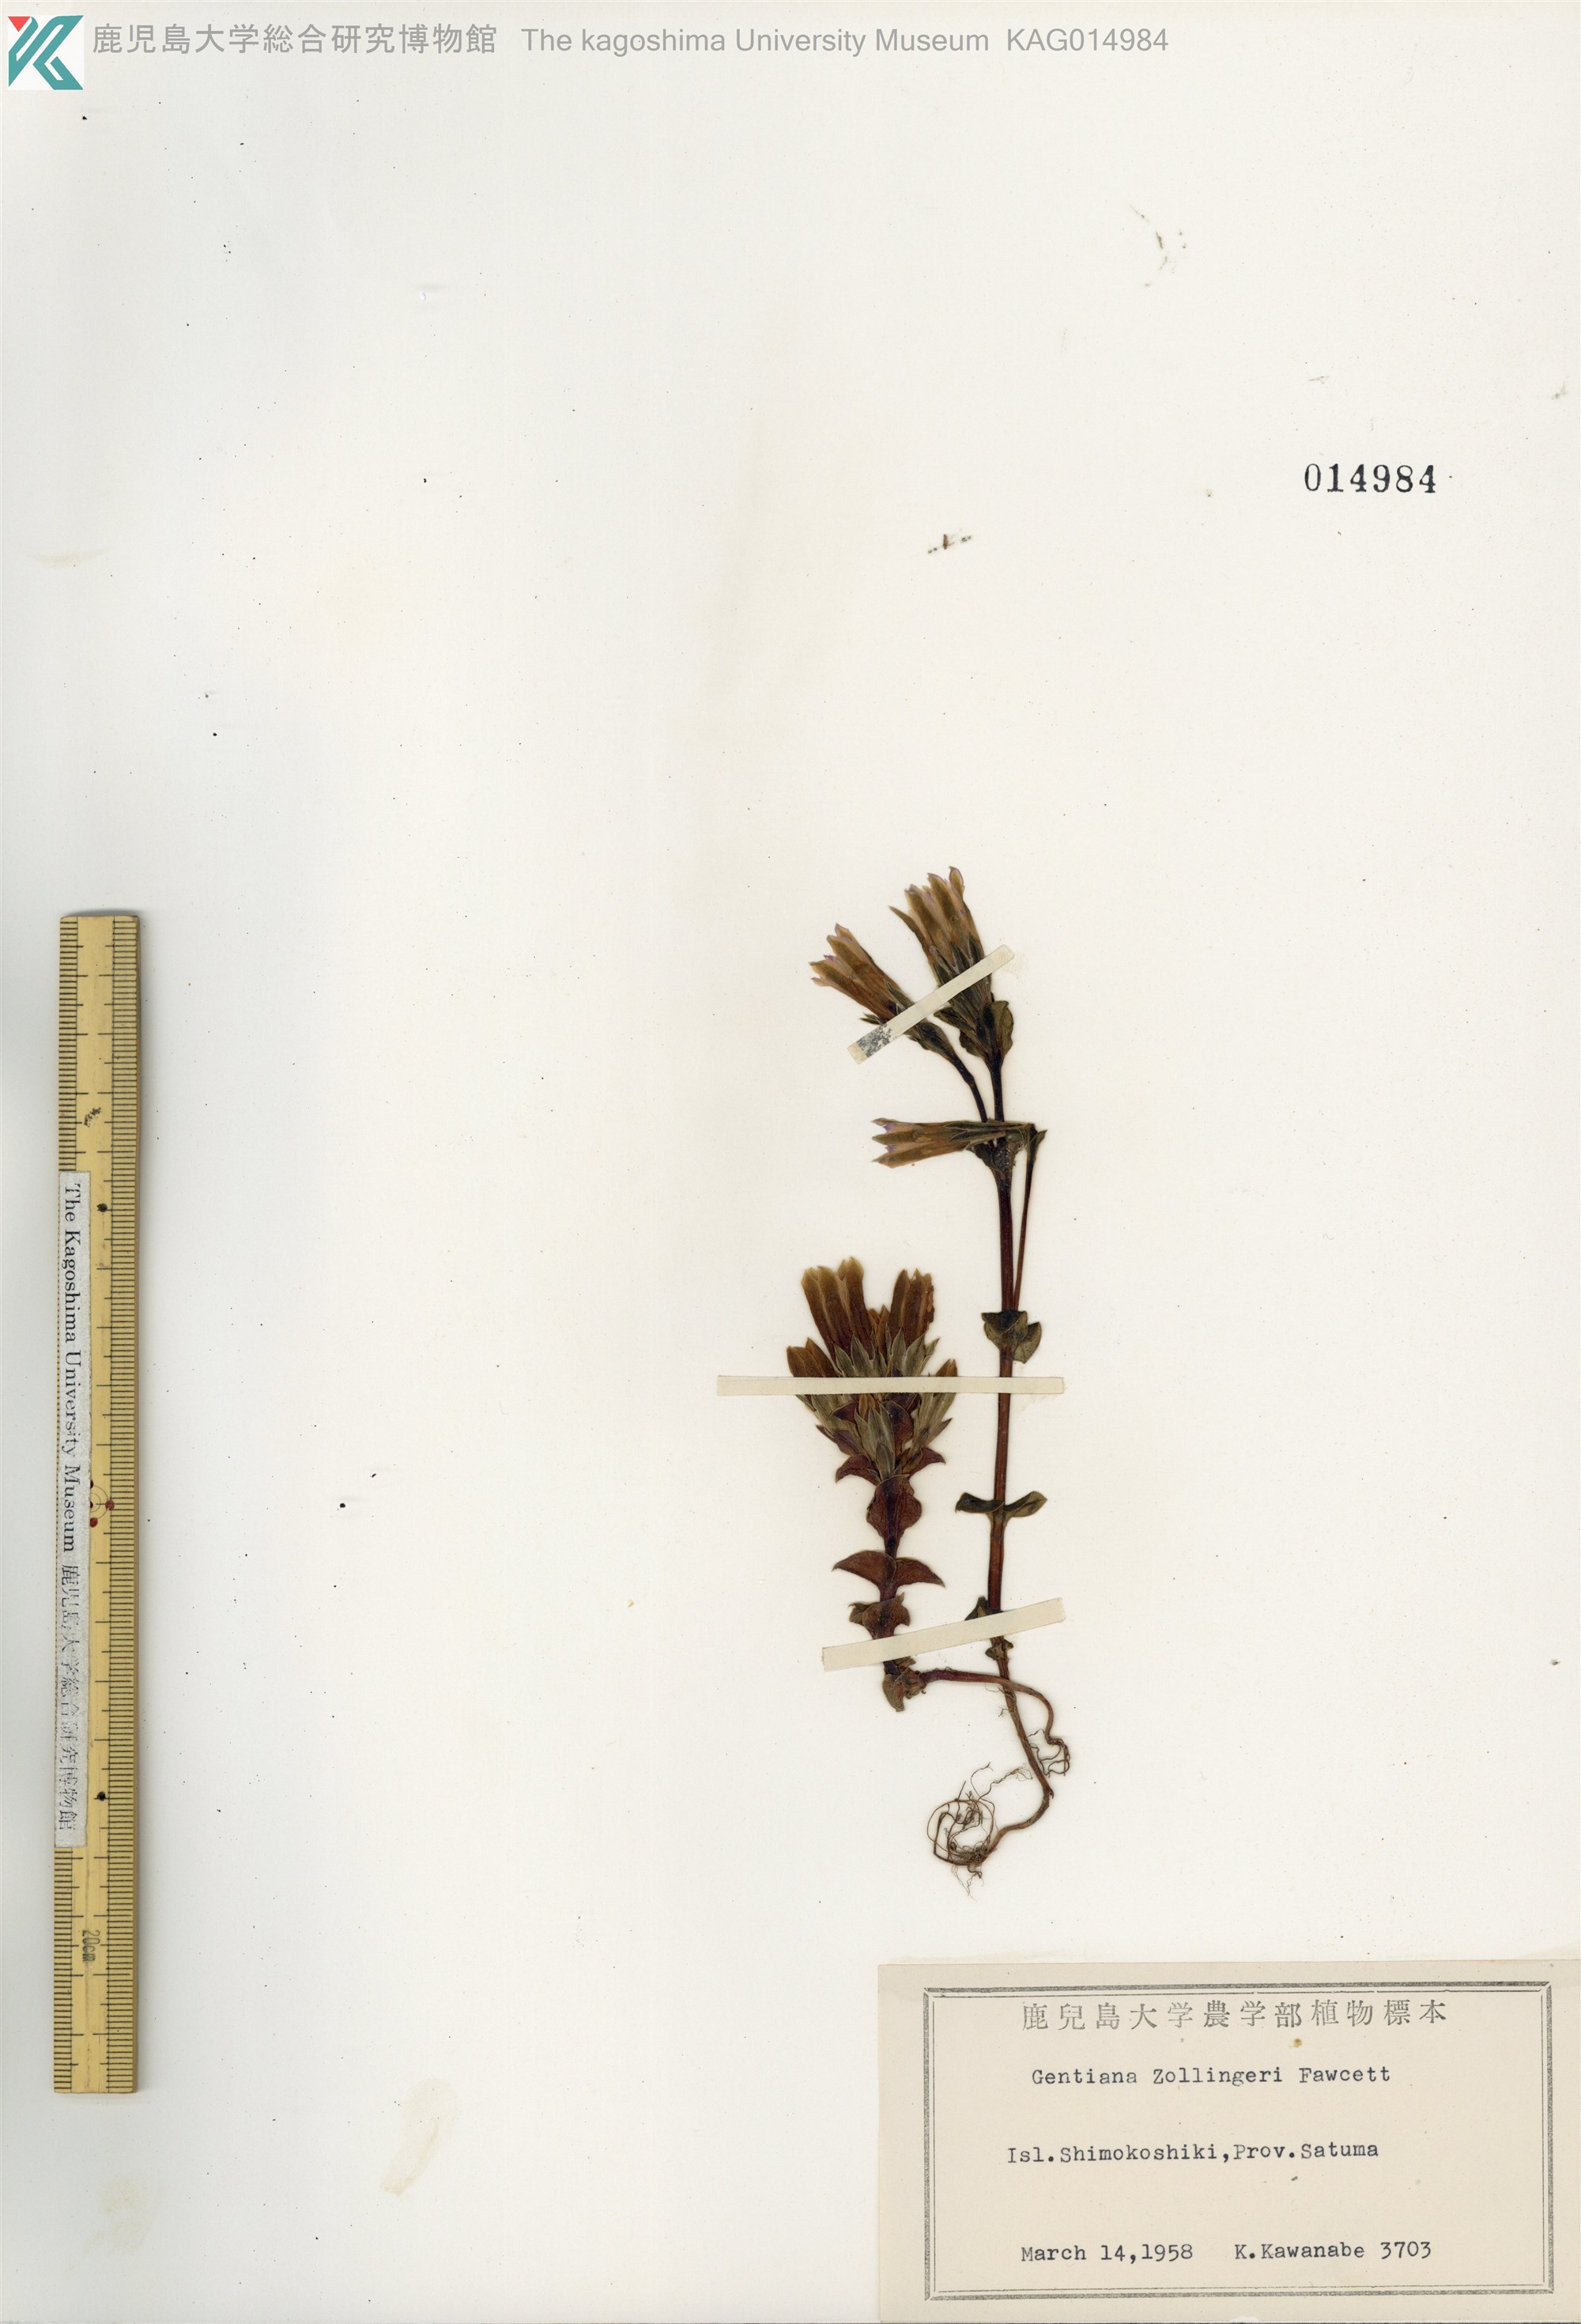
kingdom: Plantae
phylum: Tracheophyta
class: Magnoliopsida
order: Gentianales
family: Gentianaceae
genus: Gentiana
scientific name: Gentiana zollingeri
